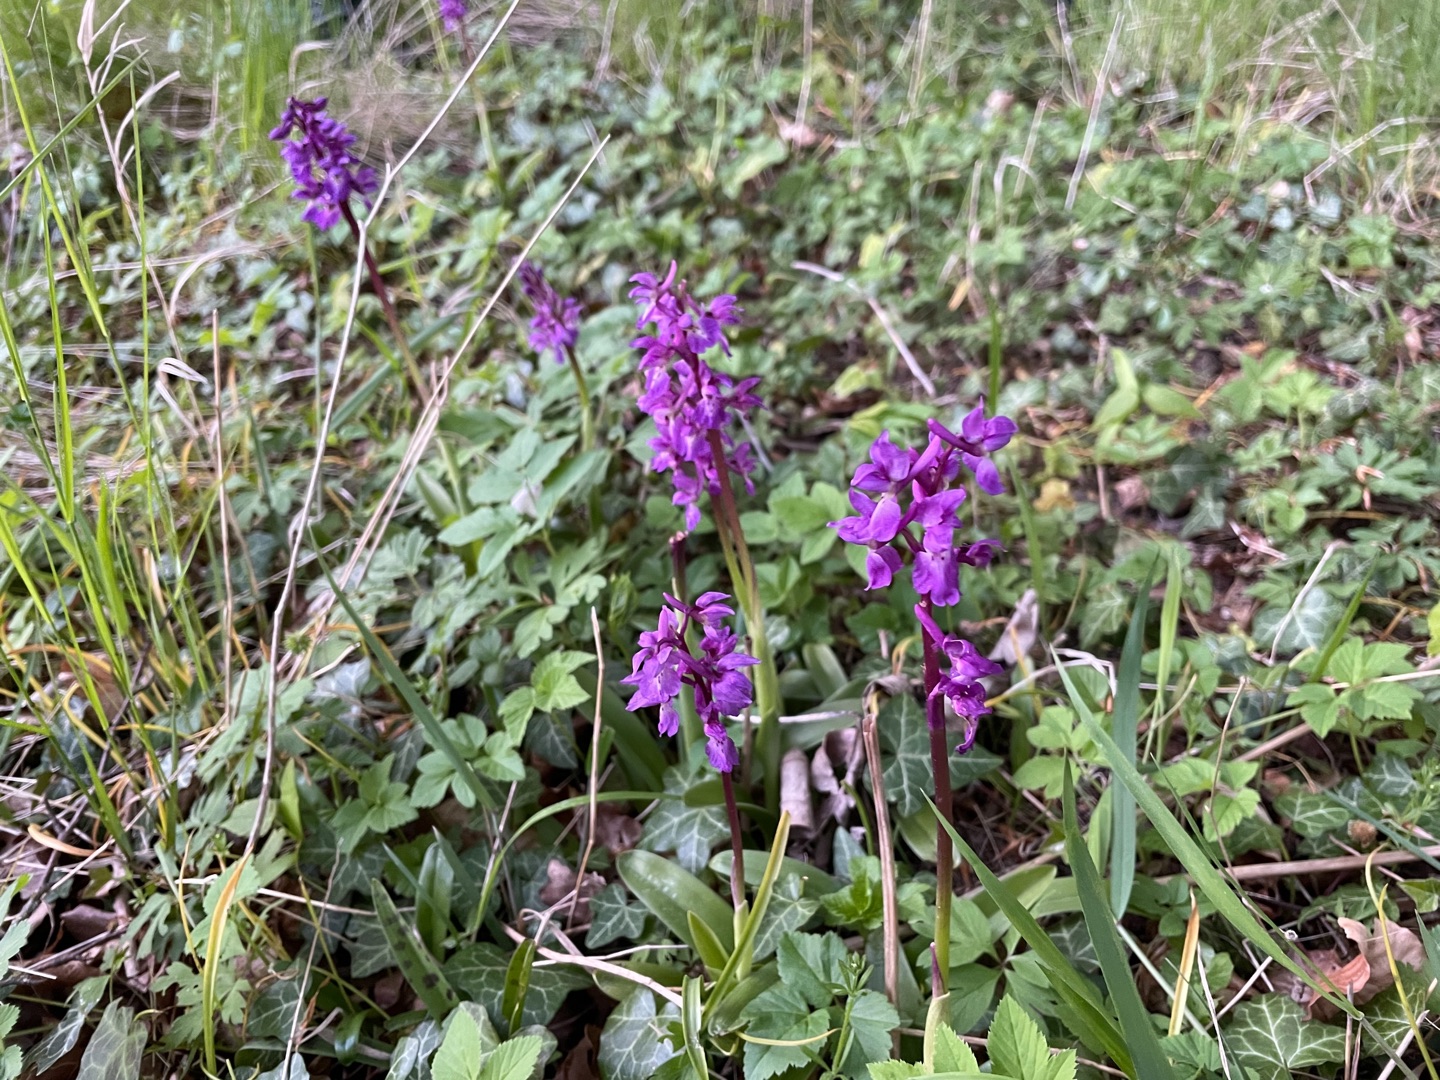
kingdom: Plantae
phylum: Tracheophyta
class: Liliopsida
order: Asparagales
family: Orchidaceae
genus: Orchis
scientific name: Orchis mascula
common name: Tyndakset gøgeurt
